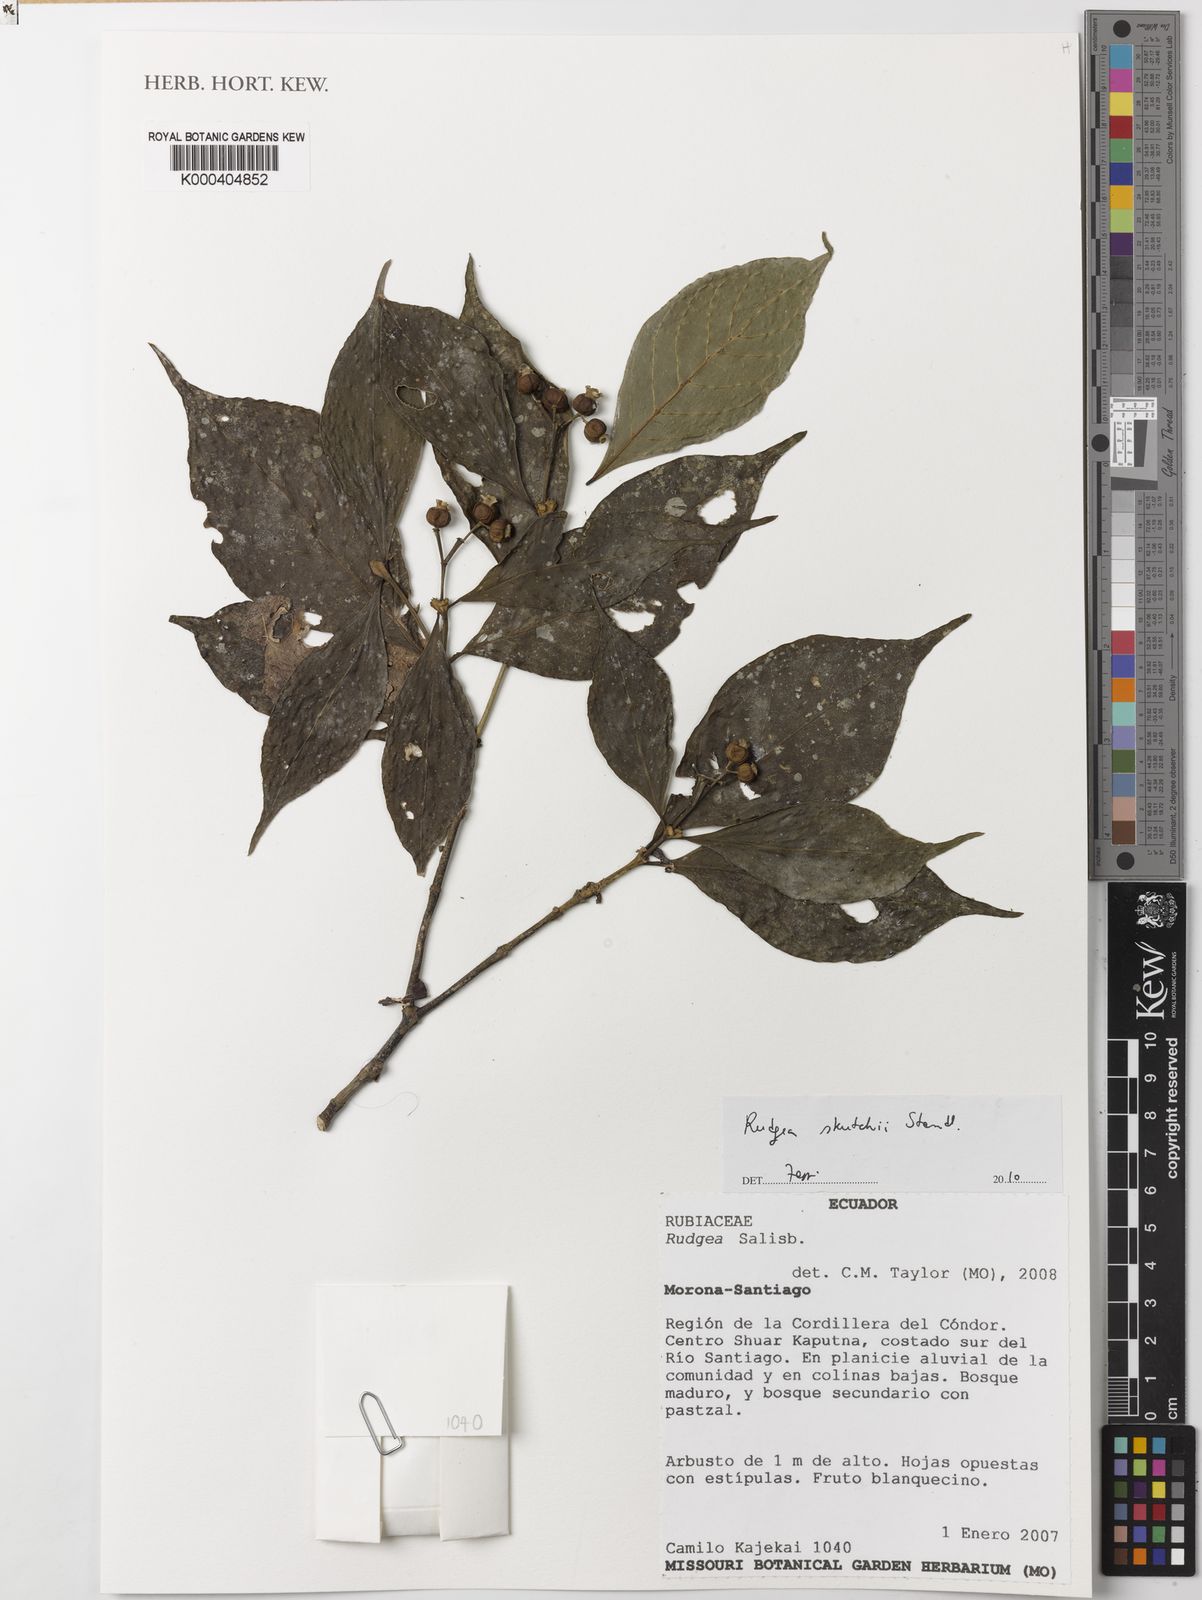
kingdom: Plantae
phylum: Tracheophyta
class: Magnoliopsida
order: Gentianales
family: Rubiaceae
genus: Rudgea
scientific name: Rudgea skutchii
